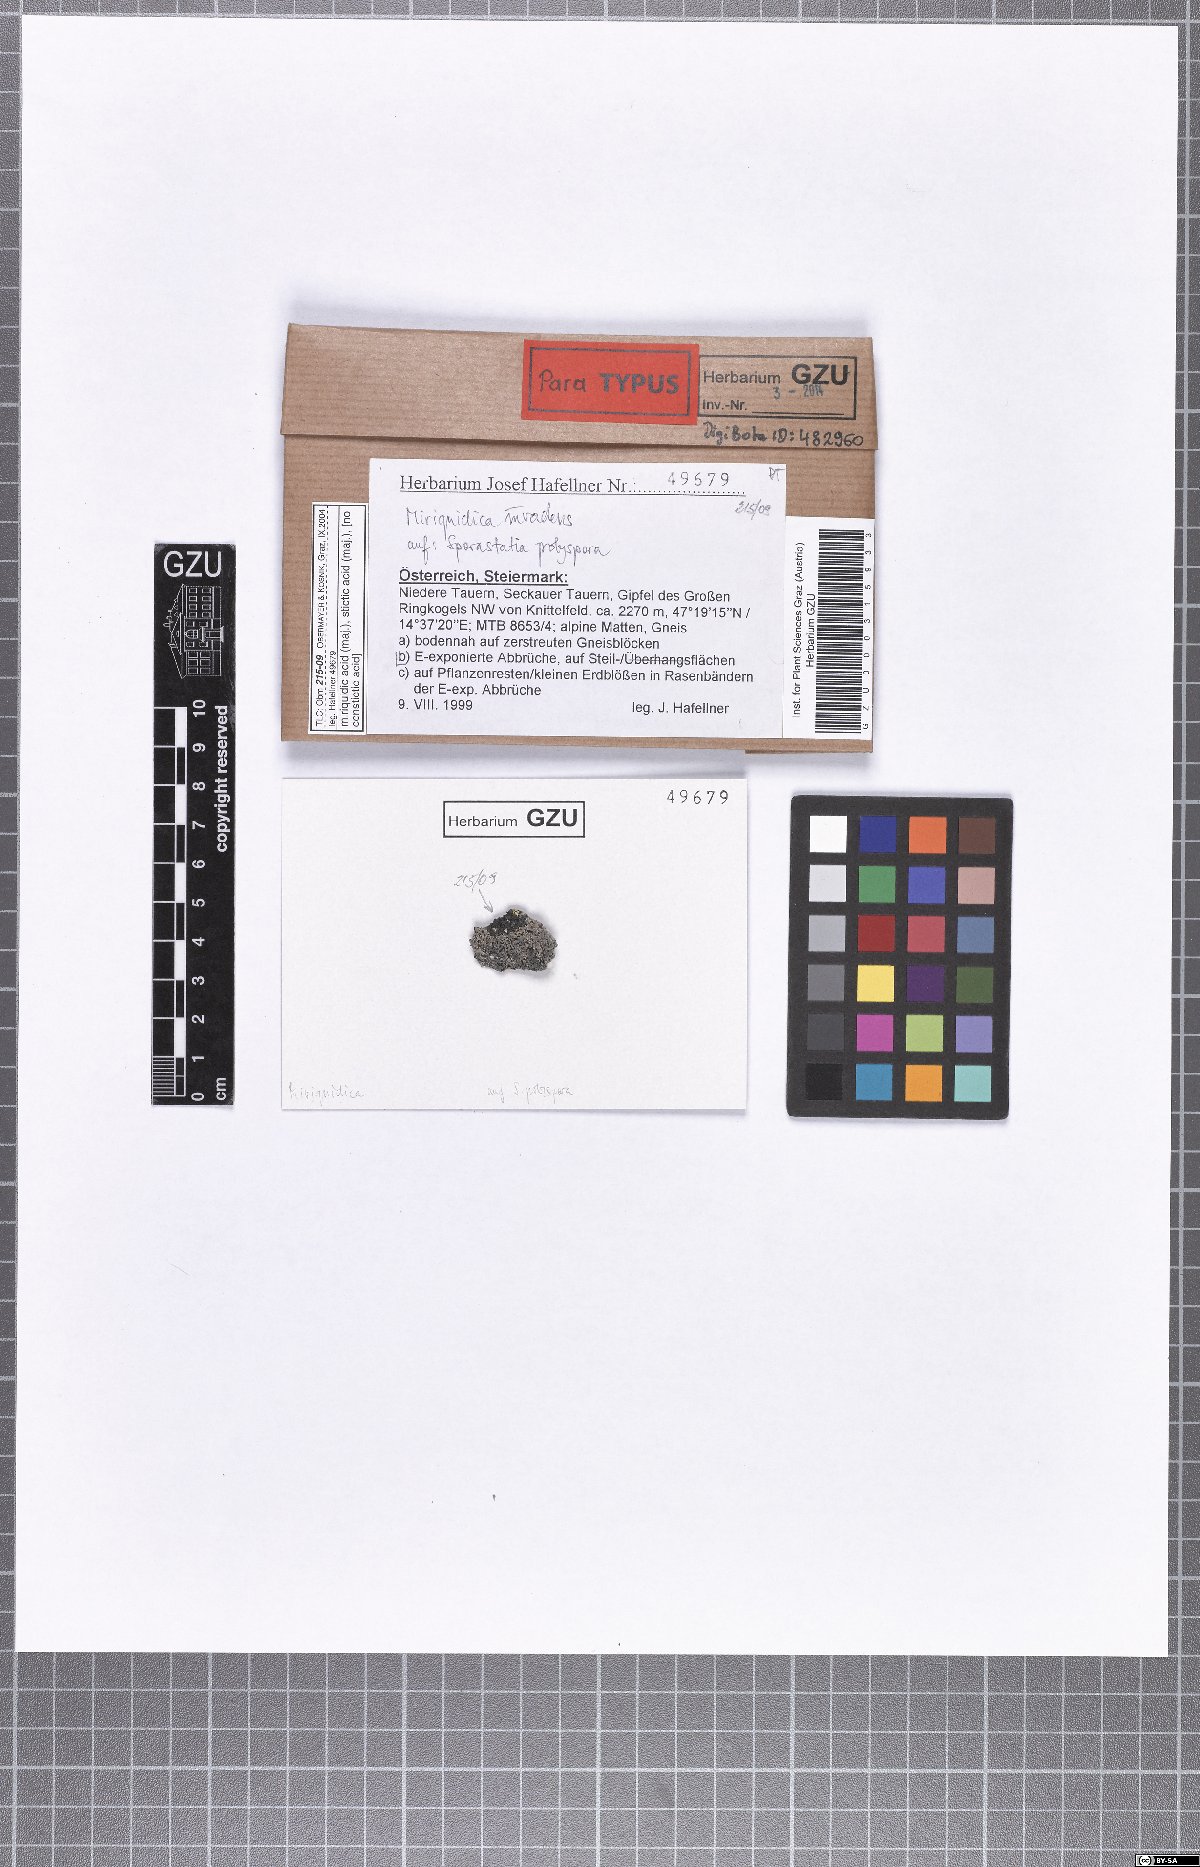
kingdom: Fungi
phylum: Ascomycota
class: Lecanoromycetes
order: Lecanorales
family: Lecanoraceae
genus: Miriquidica
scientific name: Miriquidica invadens
